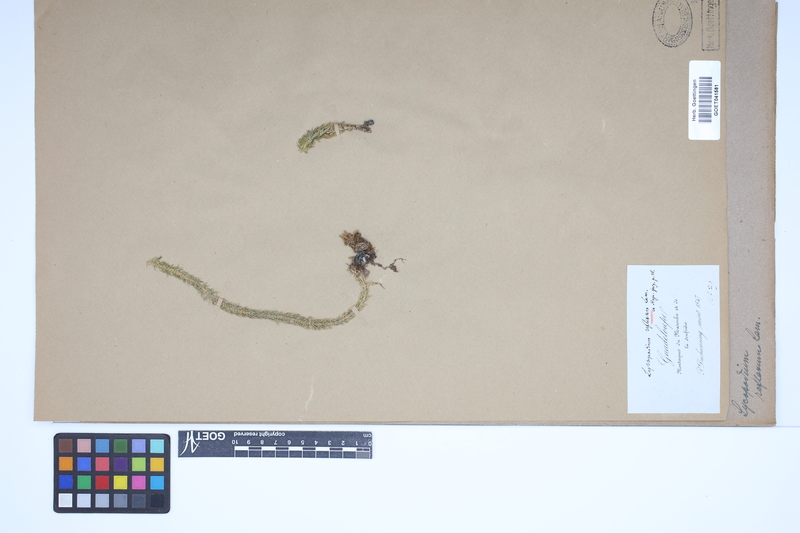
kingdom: Plantae
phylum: Tracheophyta
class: Lycopodiopsida
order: Lycopodiales
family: Lycopodiaceae
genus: Huperzia
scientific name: Huperzia lucidula
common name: Shining clubmoss
